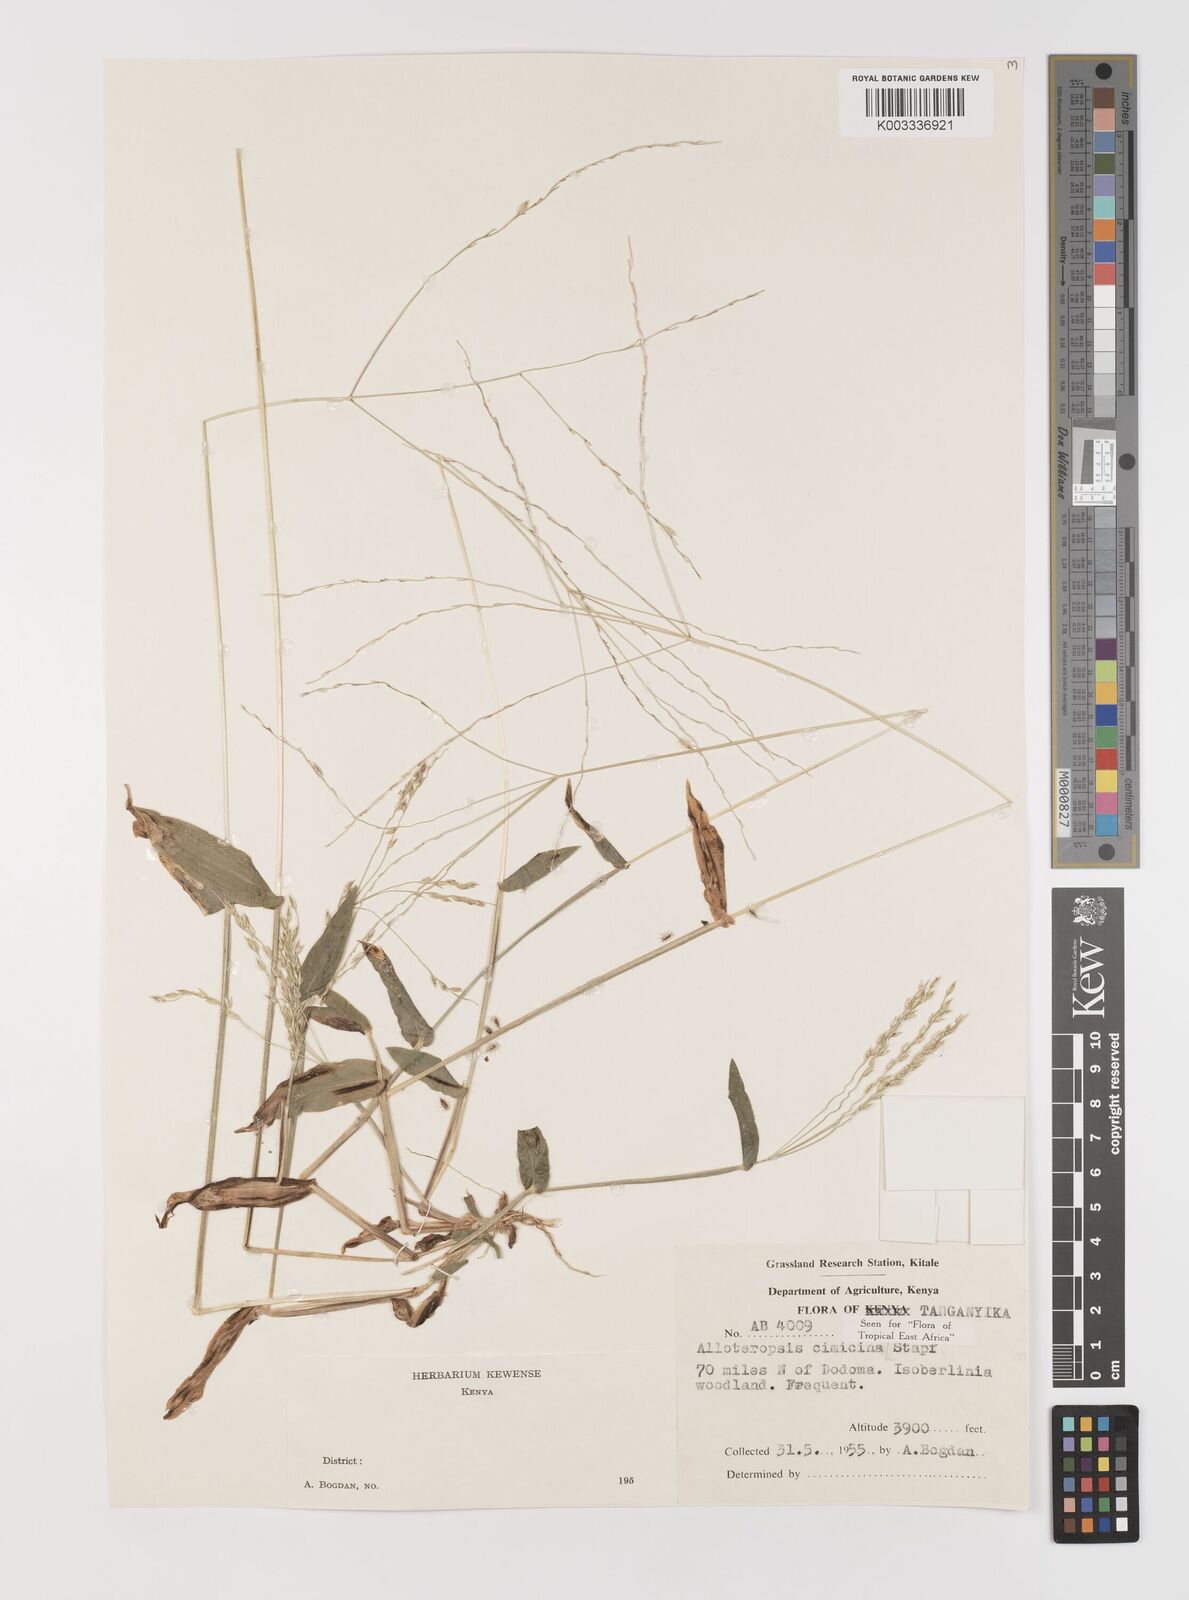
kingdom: Plantae
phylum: Tracheophyta
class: Liliopsida
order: Poales
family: Poaceae
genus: Alloteropsis
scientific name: Alloteropsis cimicina
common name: Summergrass
